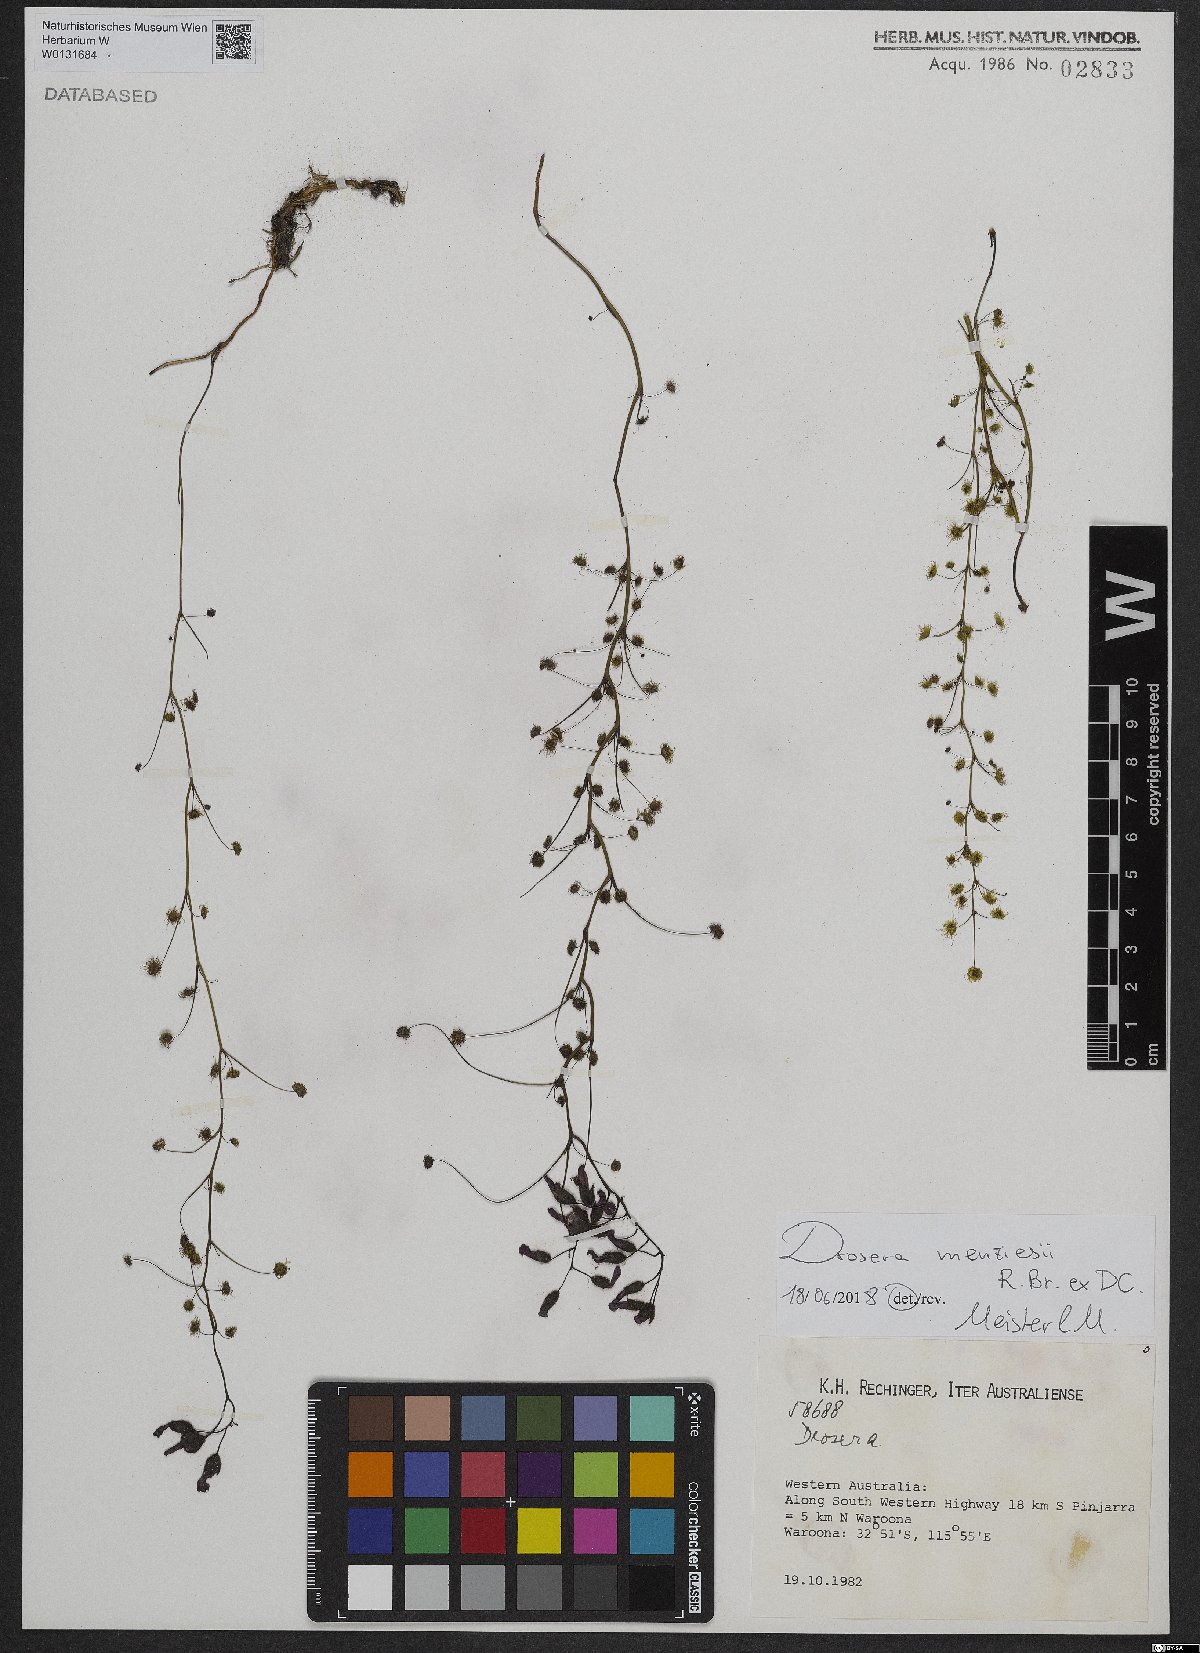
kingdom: Plantae
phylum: Tracheophyta
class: Magnoliopsida
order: Caryophyllales
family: Droseraceae
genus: Drosera
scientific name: Drosera menziesii
